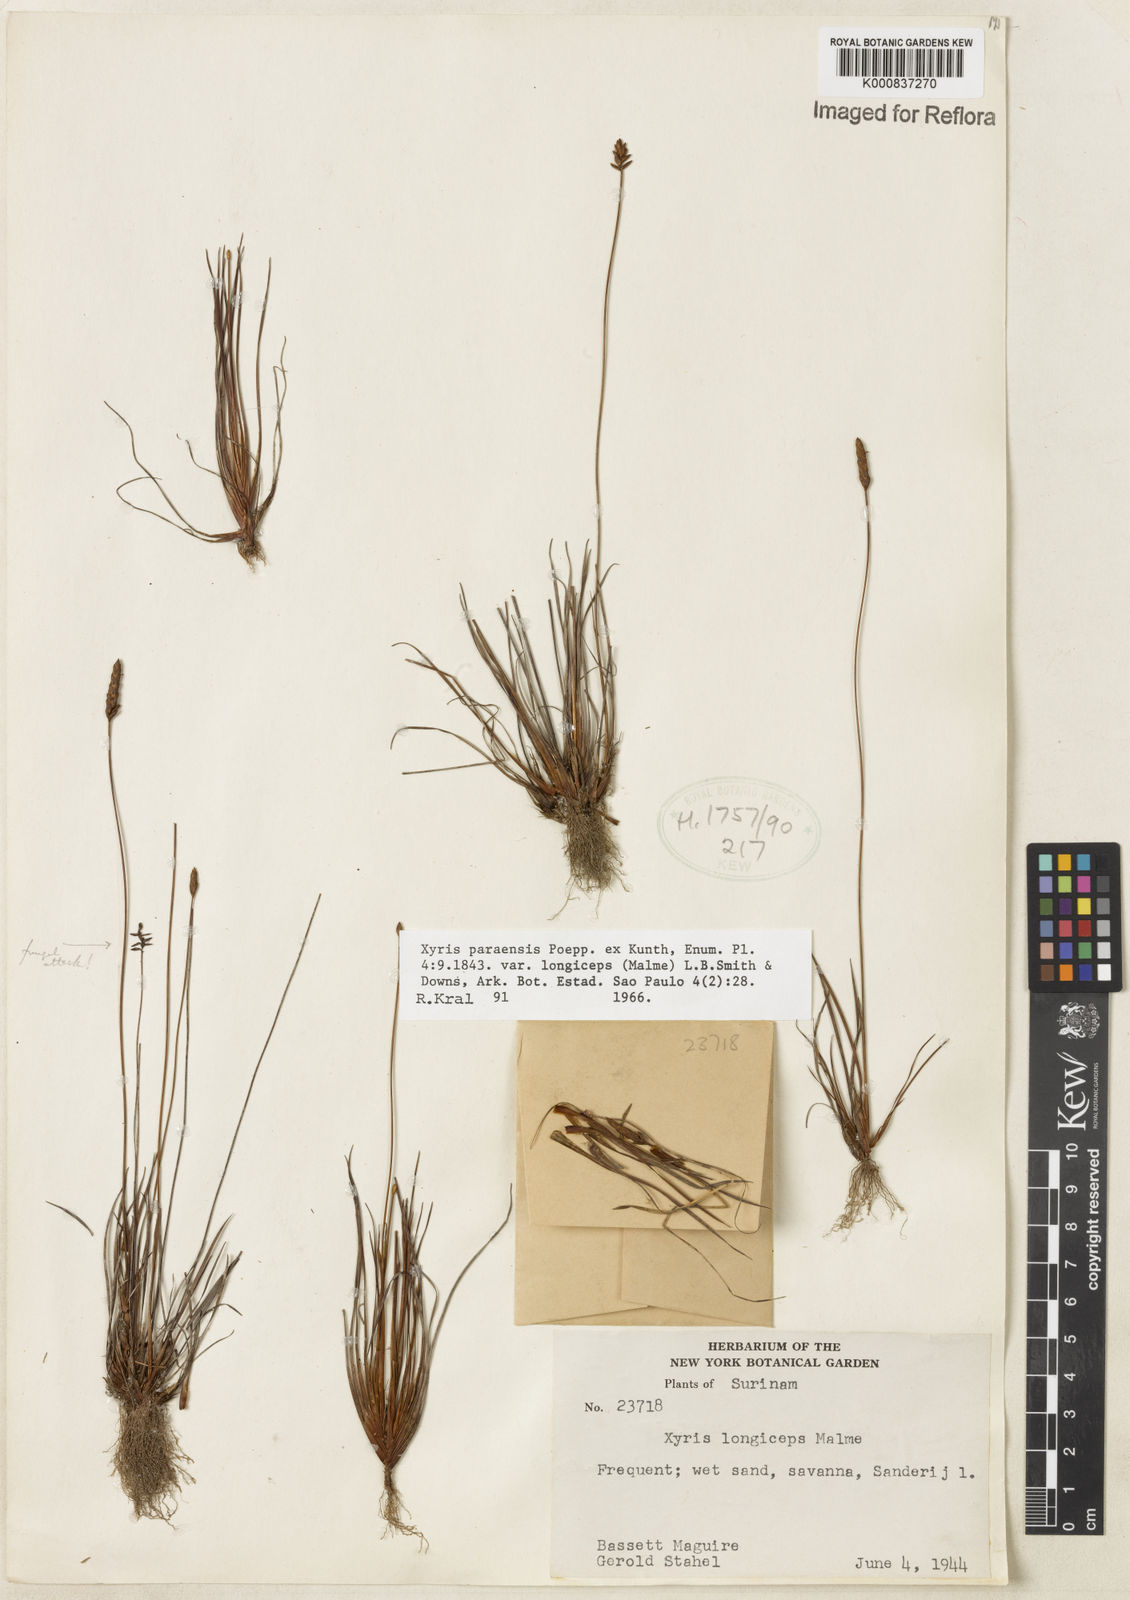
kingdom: Plantae
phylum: Tracheophyta
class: Liliopsida
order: Poales
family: Xyridaceae
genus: Xyris
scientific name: Xyris paraensis
